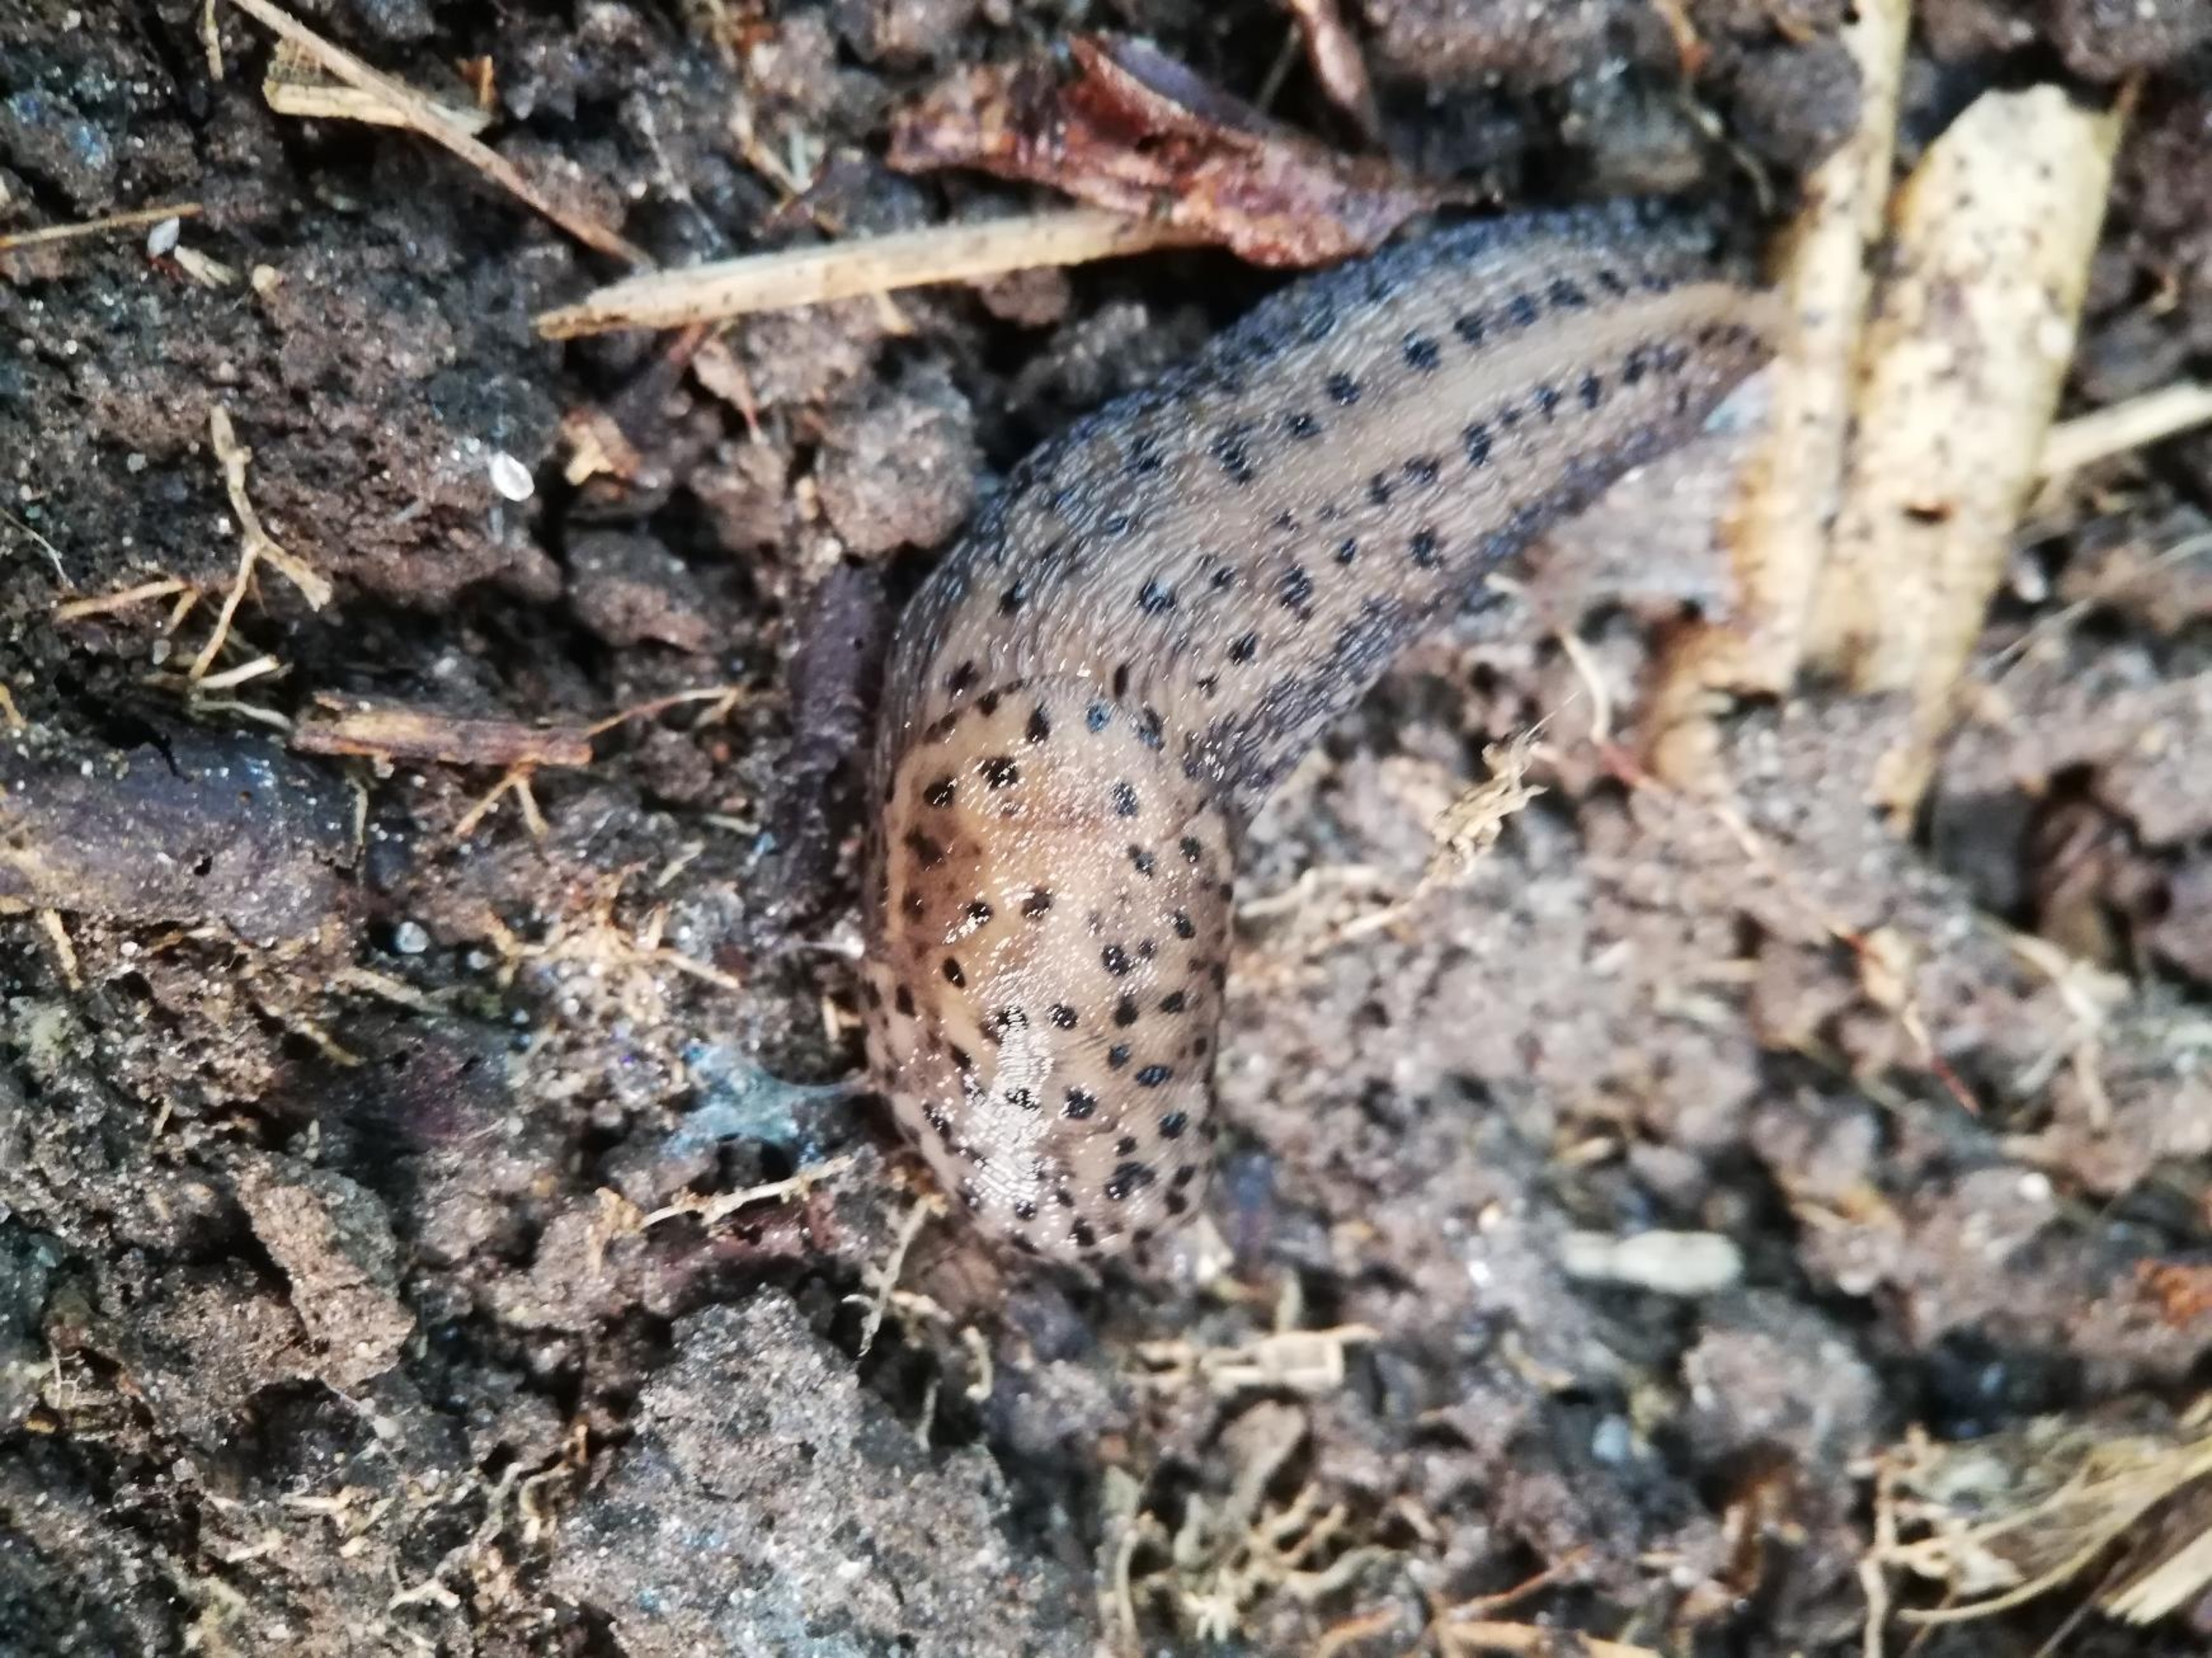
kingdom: Animalia
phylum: Mollusca
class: Gastropoda
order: Stylommatophora
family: Limacidae
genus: Limax
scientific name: Limax maximus
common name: Pantersnegl
